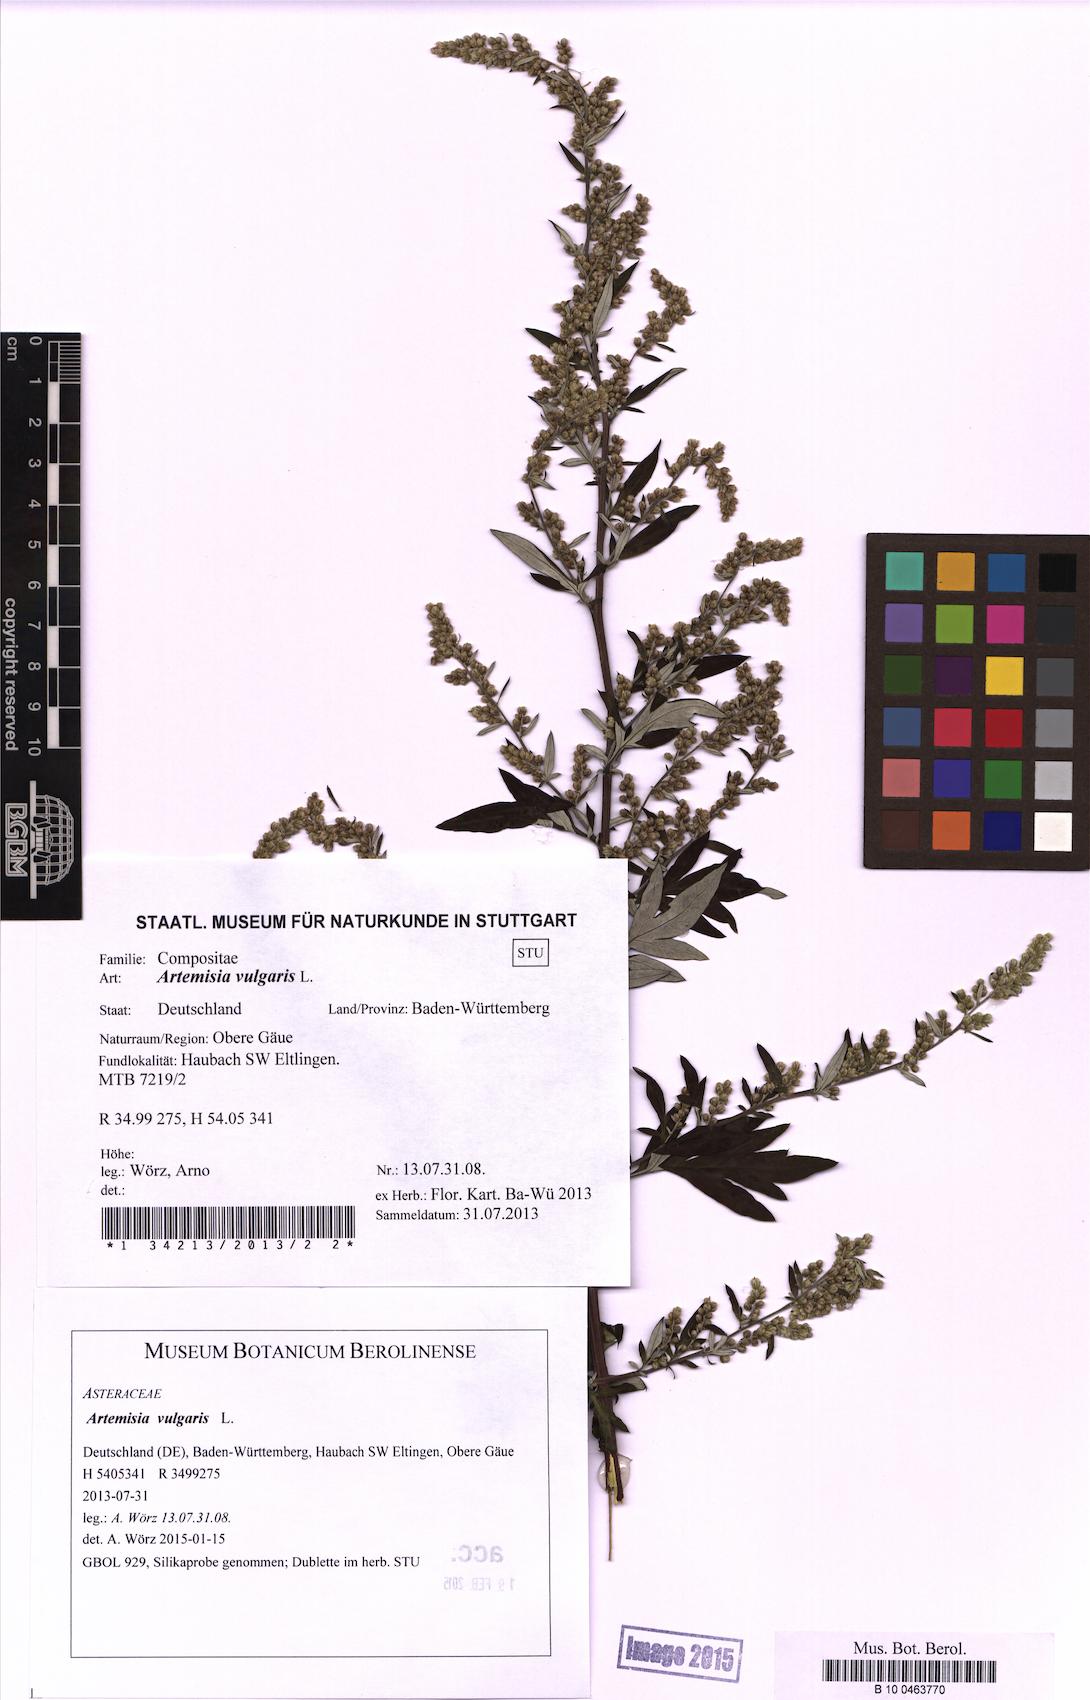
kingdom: Plantae
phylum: Tracheophyta
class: Magnoliopsida
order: Asterales
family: Asteraceae
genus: Artemisia
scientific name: Artemisia vulgaris
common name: Mugwort
